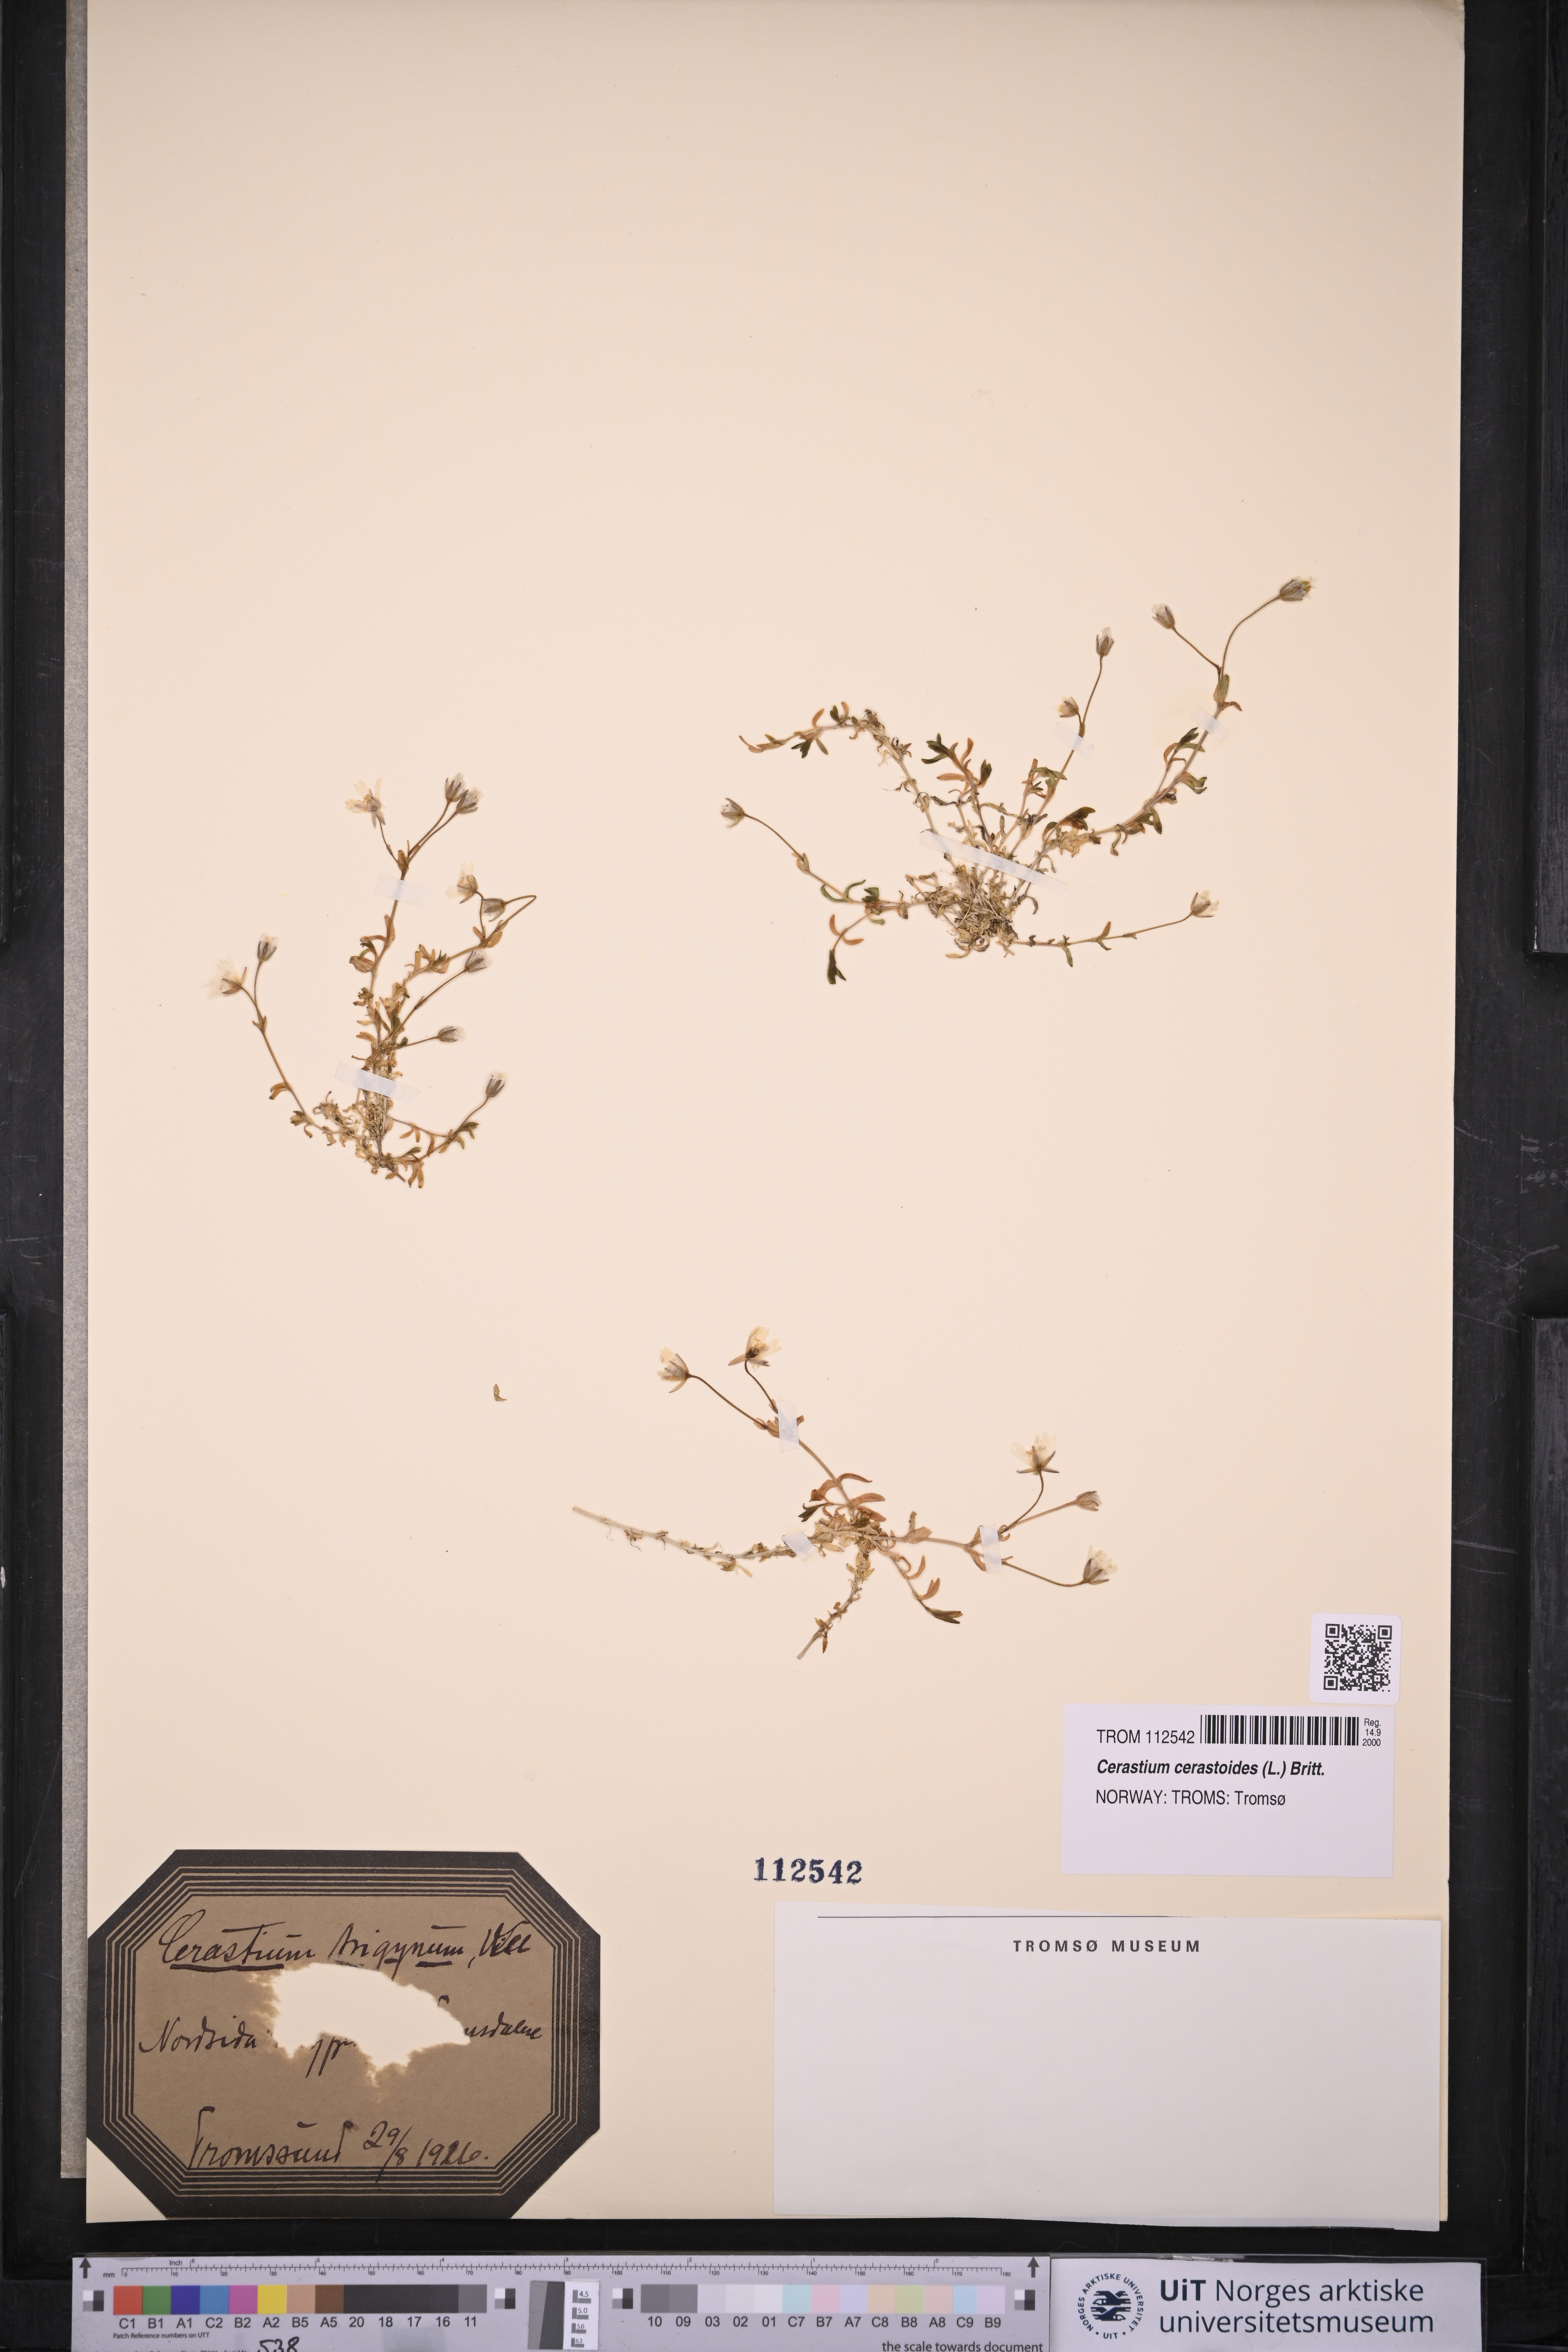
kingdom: Plantae
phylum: Tracheophyta
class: Magnoliopsida
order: Caryophyllales
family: Caryophyllaceae
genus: Dichodon
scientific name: Dichodon cerastoides
